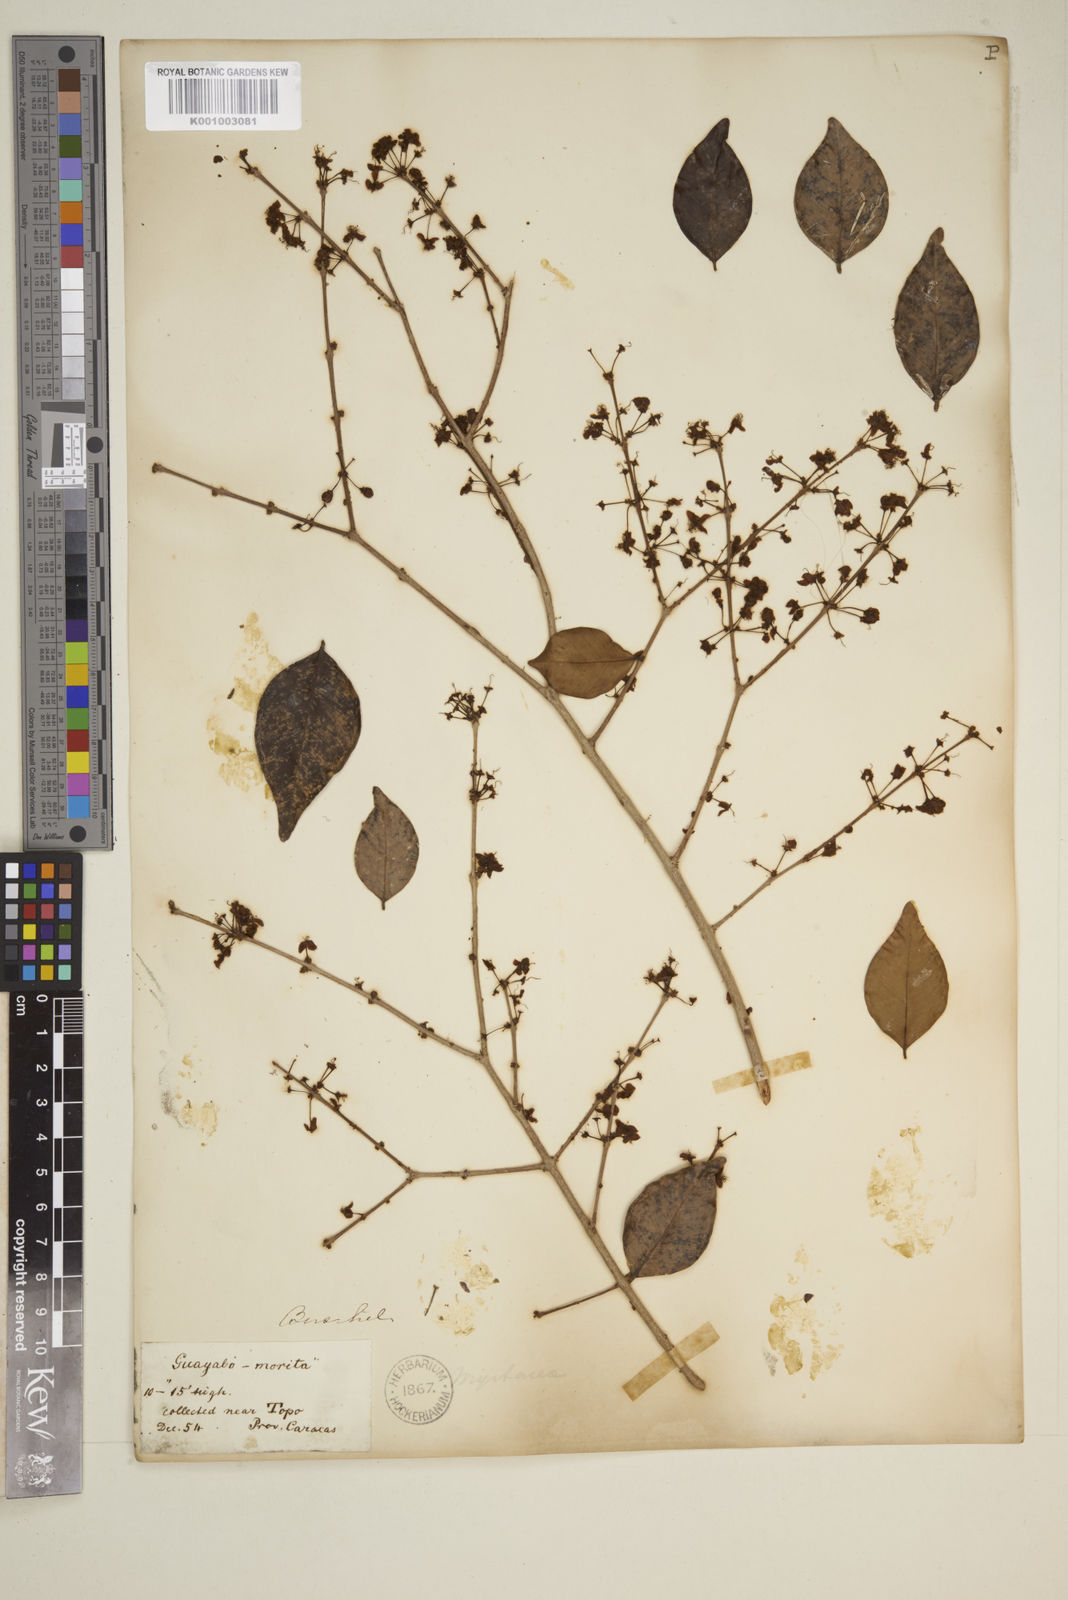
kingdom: Plantae
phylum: Tracheophyta
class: Magnoliopsida
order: Myrtales
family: Myrtaceae
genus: Eugenia
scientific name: Eugenia
